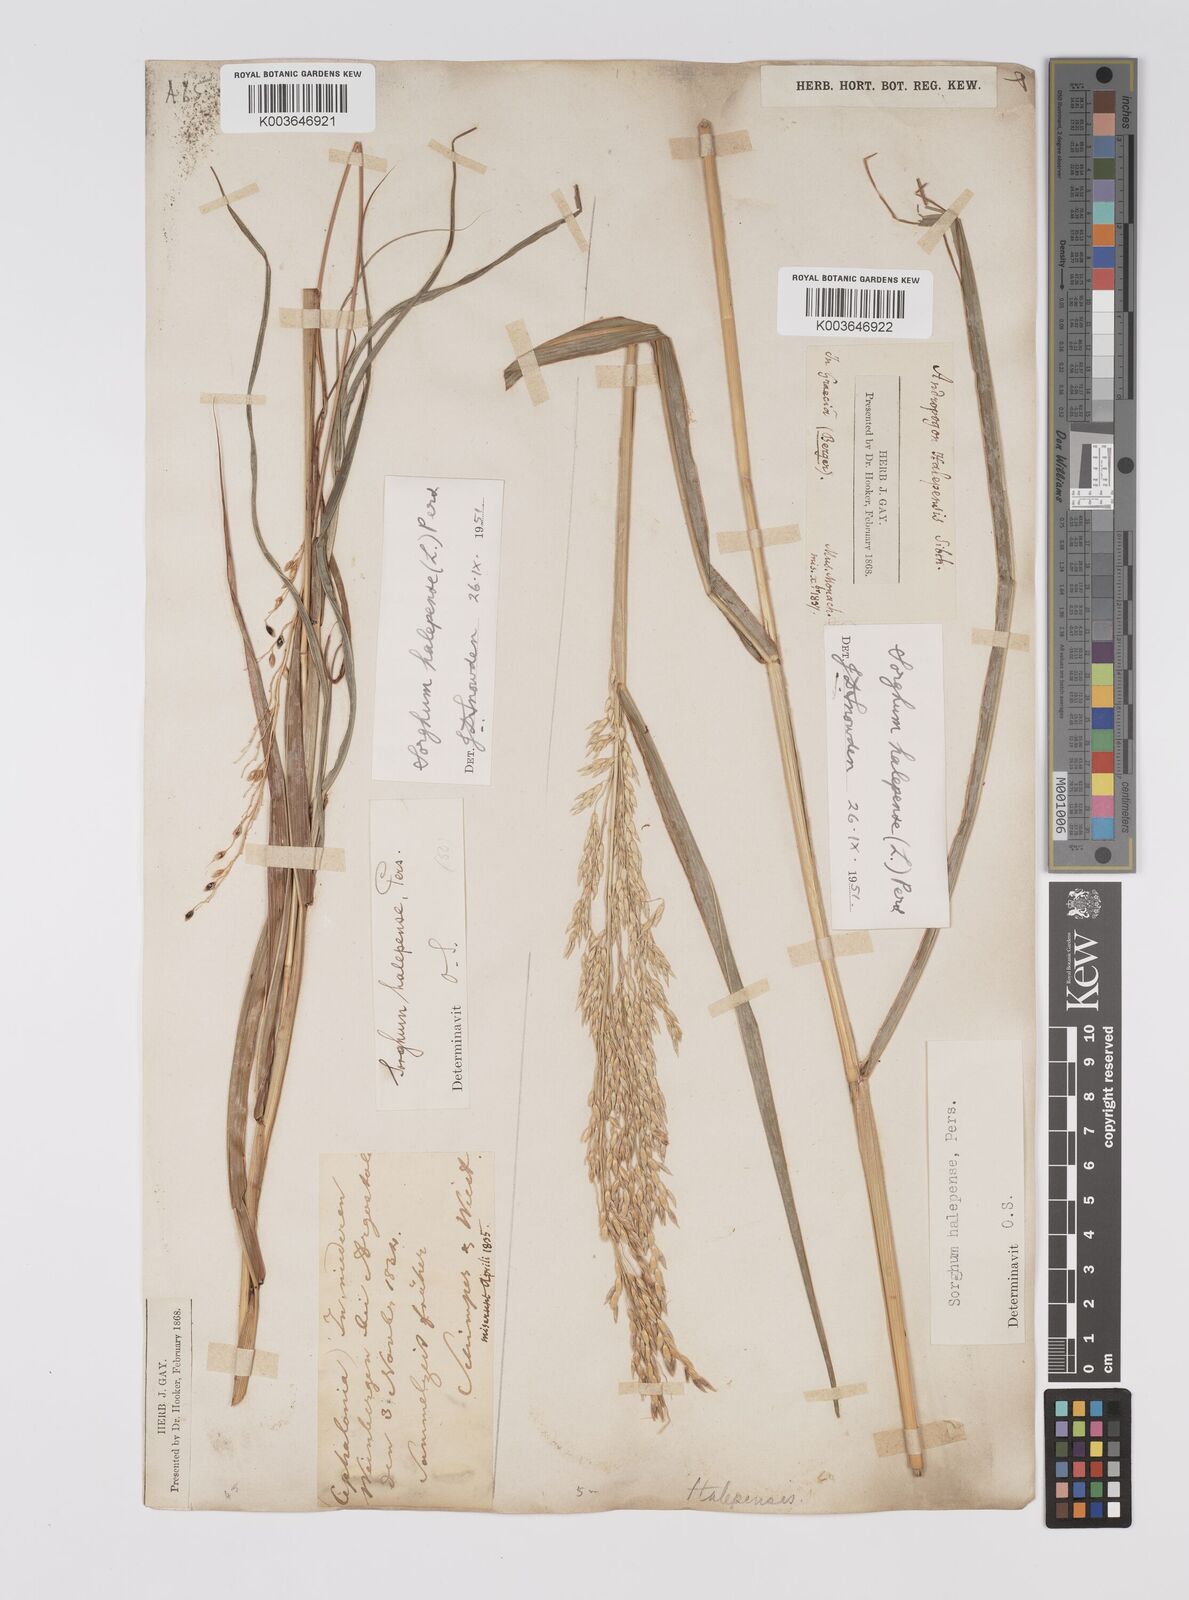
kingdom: Plantae
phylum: Tracheophyta
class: Liliopsida
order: Poales
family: Poaceae
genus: Sorghum
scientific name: Sorghum halepense
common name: Johnson-grass
